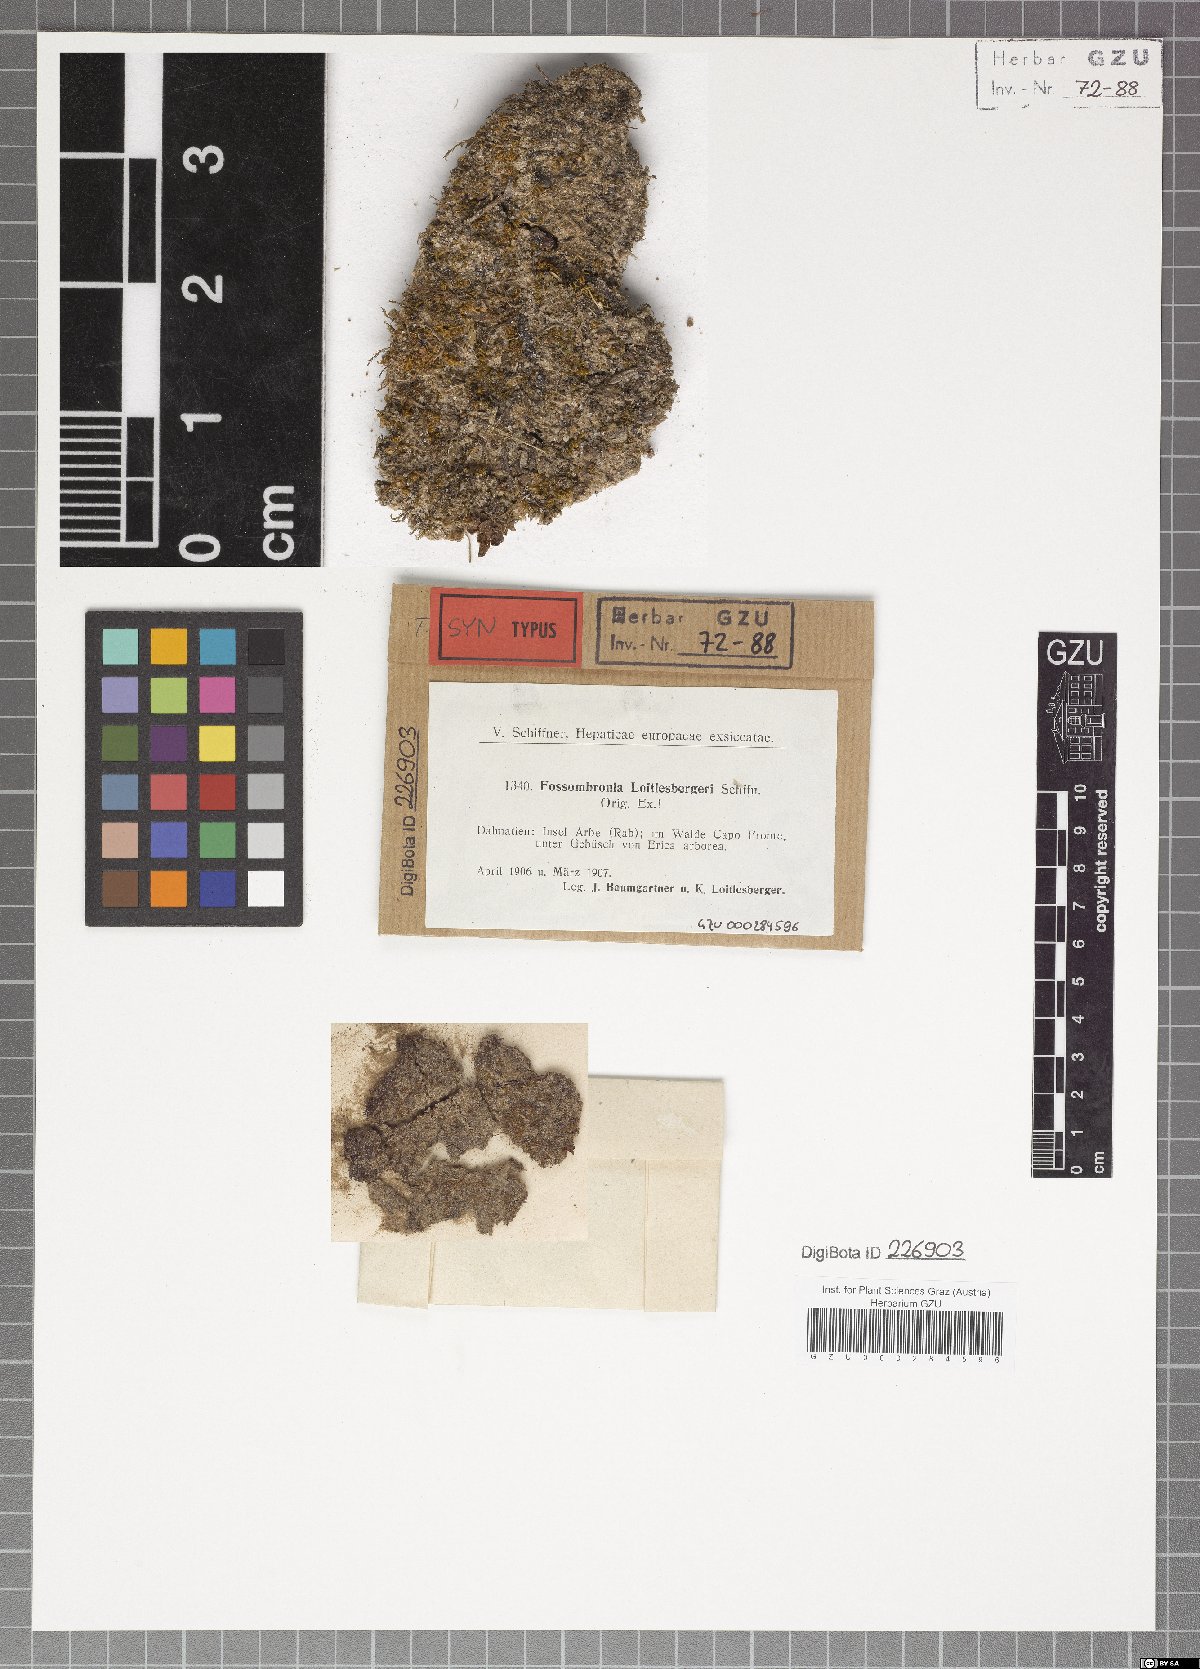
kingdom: Plantae
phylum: Marchantiophyta
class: Jungermanniopsida
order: Fossombroniales
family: Fossombroniaceae
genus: Fossombronia
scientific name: Fossombronia pusilla
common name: Common frillwort
